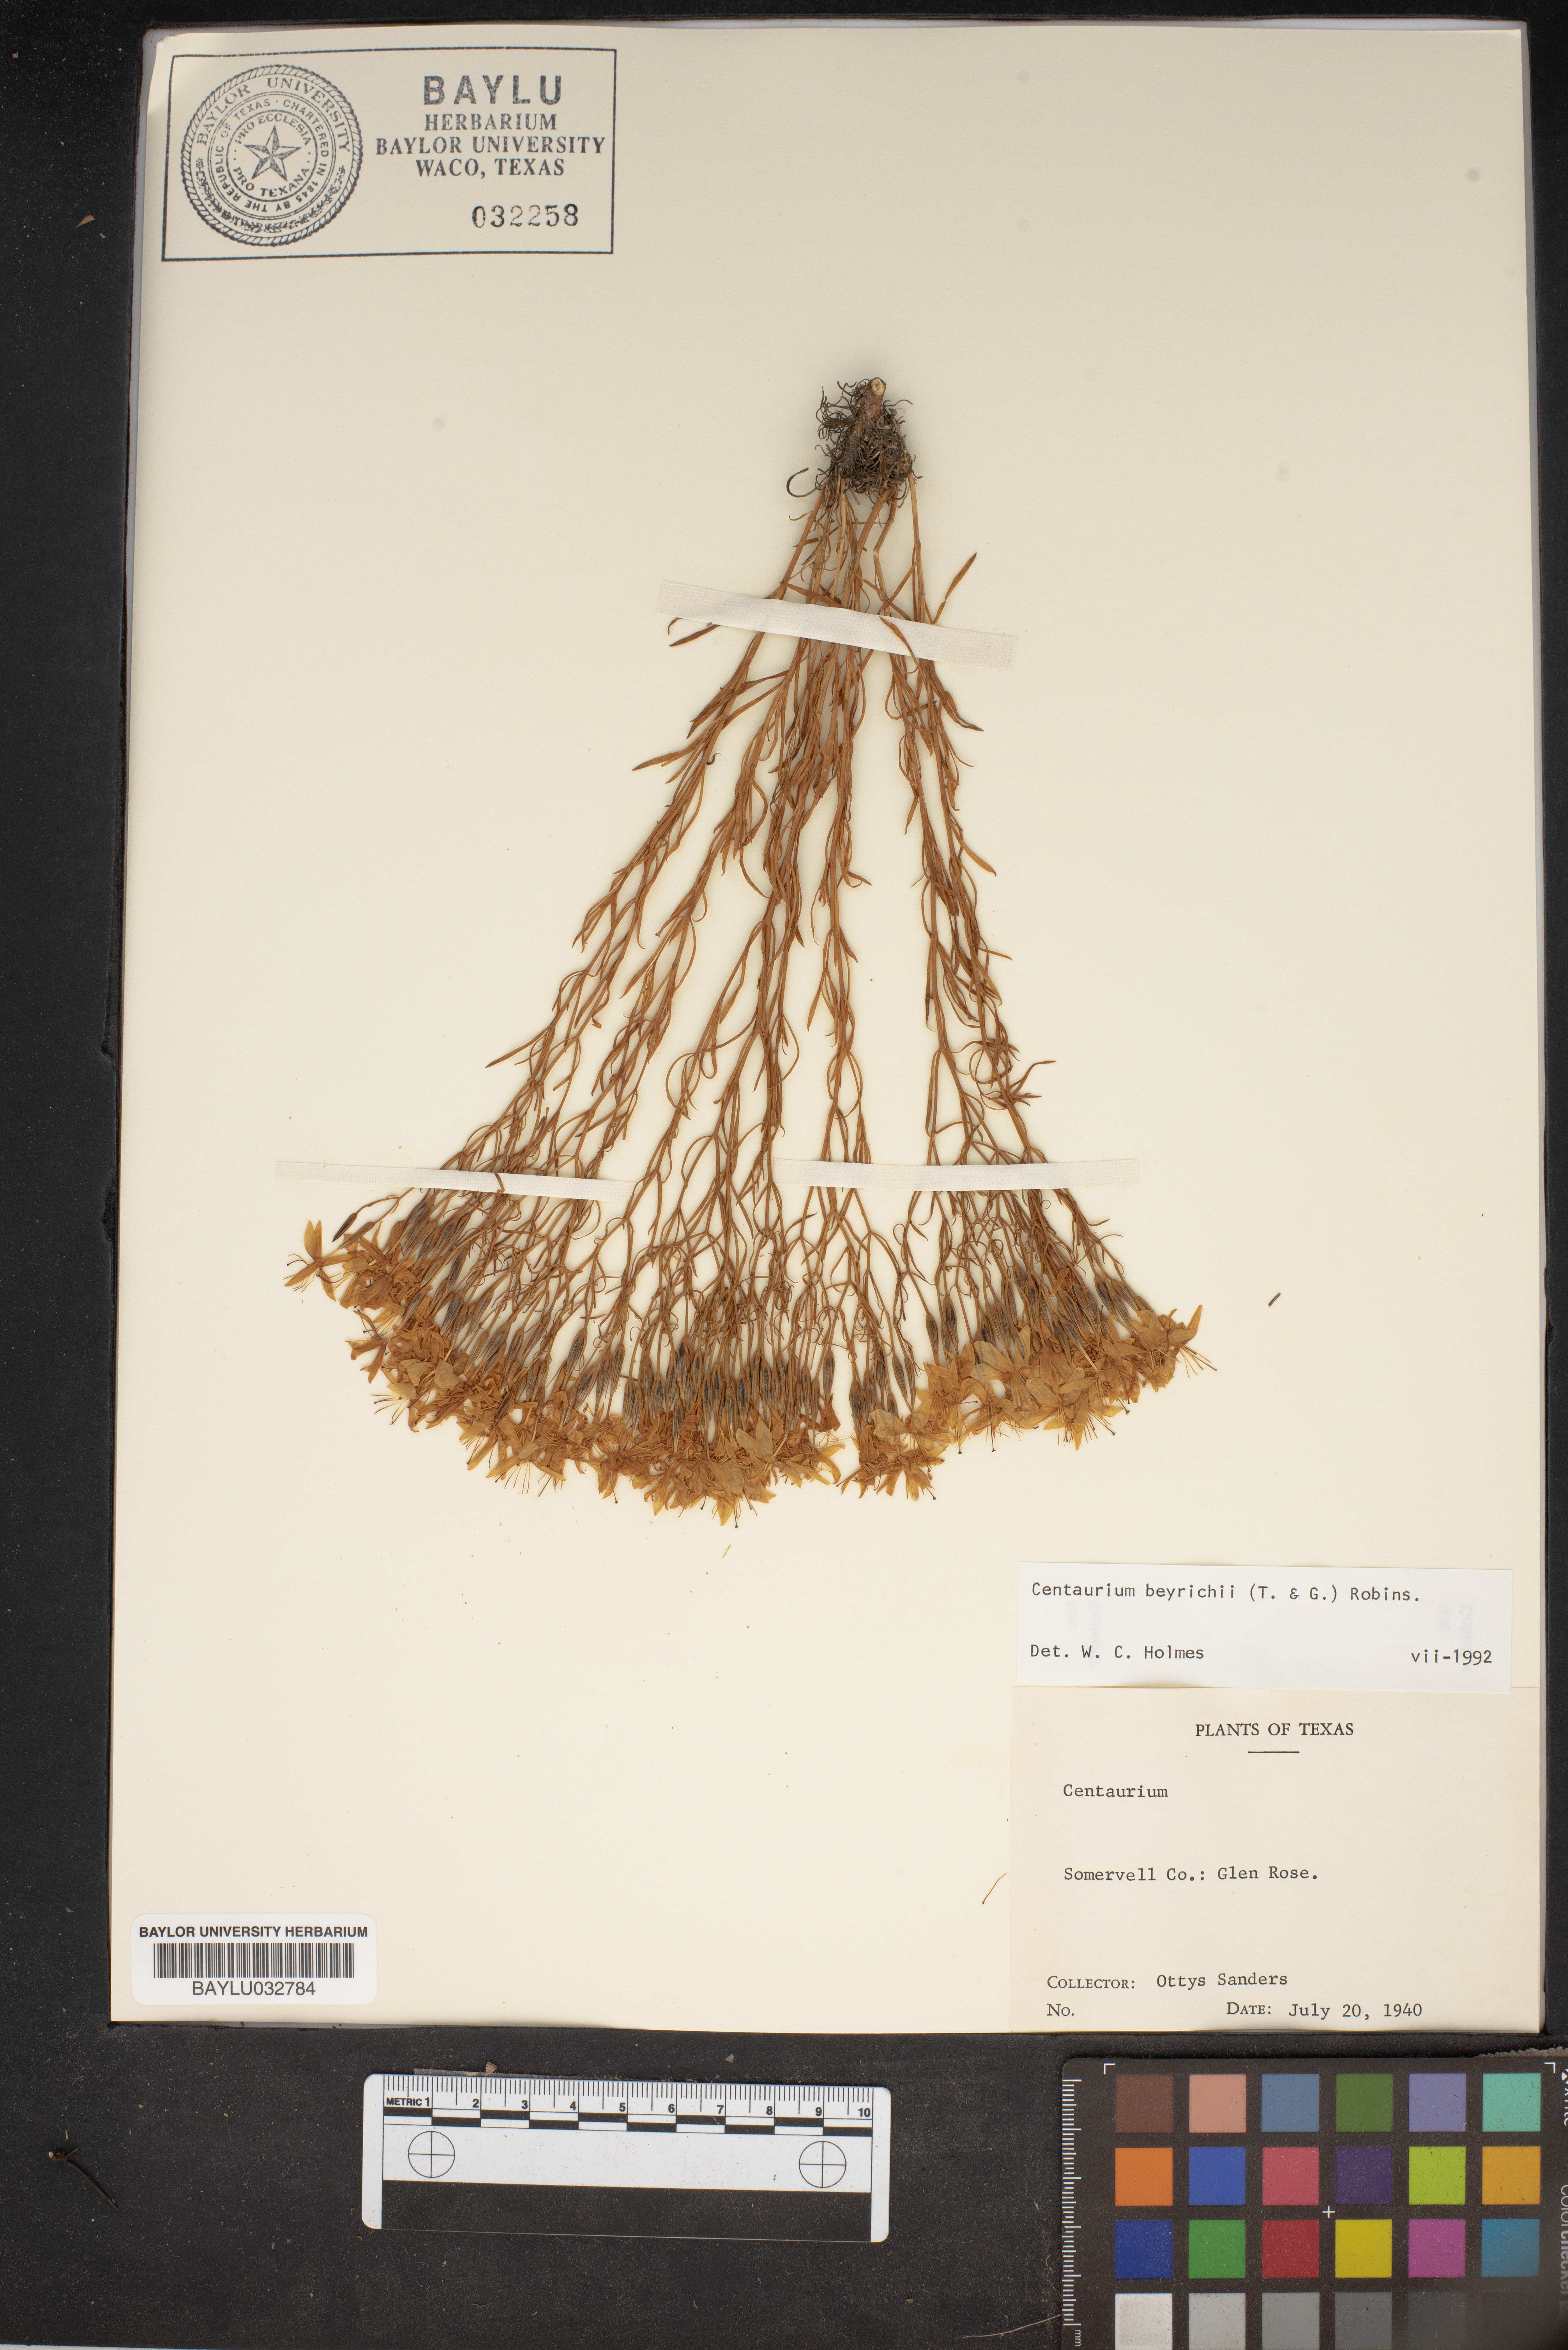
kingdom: Plantae
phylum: Tracheophyta
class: Magnoliopsida
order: Gentianales
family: Gentianaceae
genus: Zeltnera
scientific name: Zeltnera beyrichii
